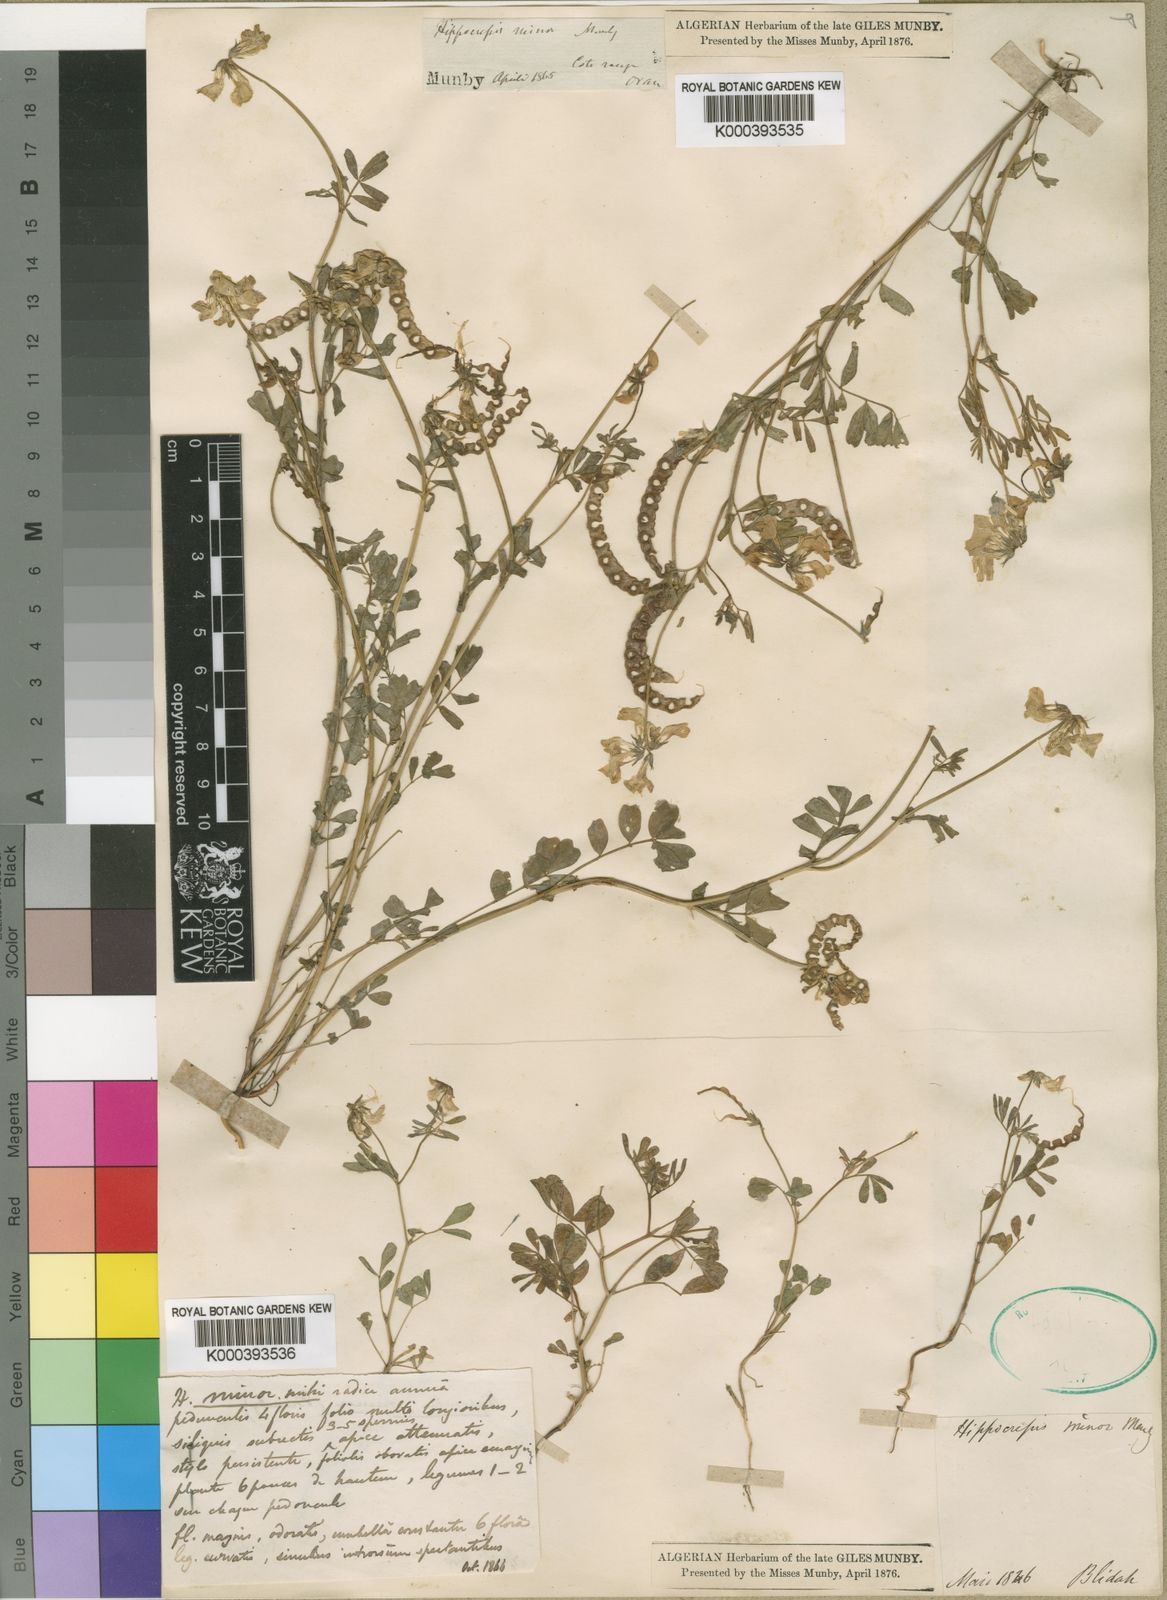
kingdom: Plantae
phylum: Tracheophyta
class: Magnoliopsida
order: Fabales
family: Fabaceae
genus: Hippocrepis
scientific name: Hippocrepis minor
